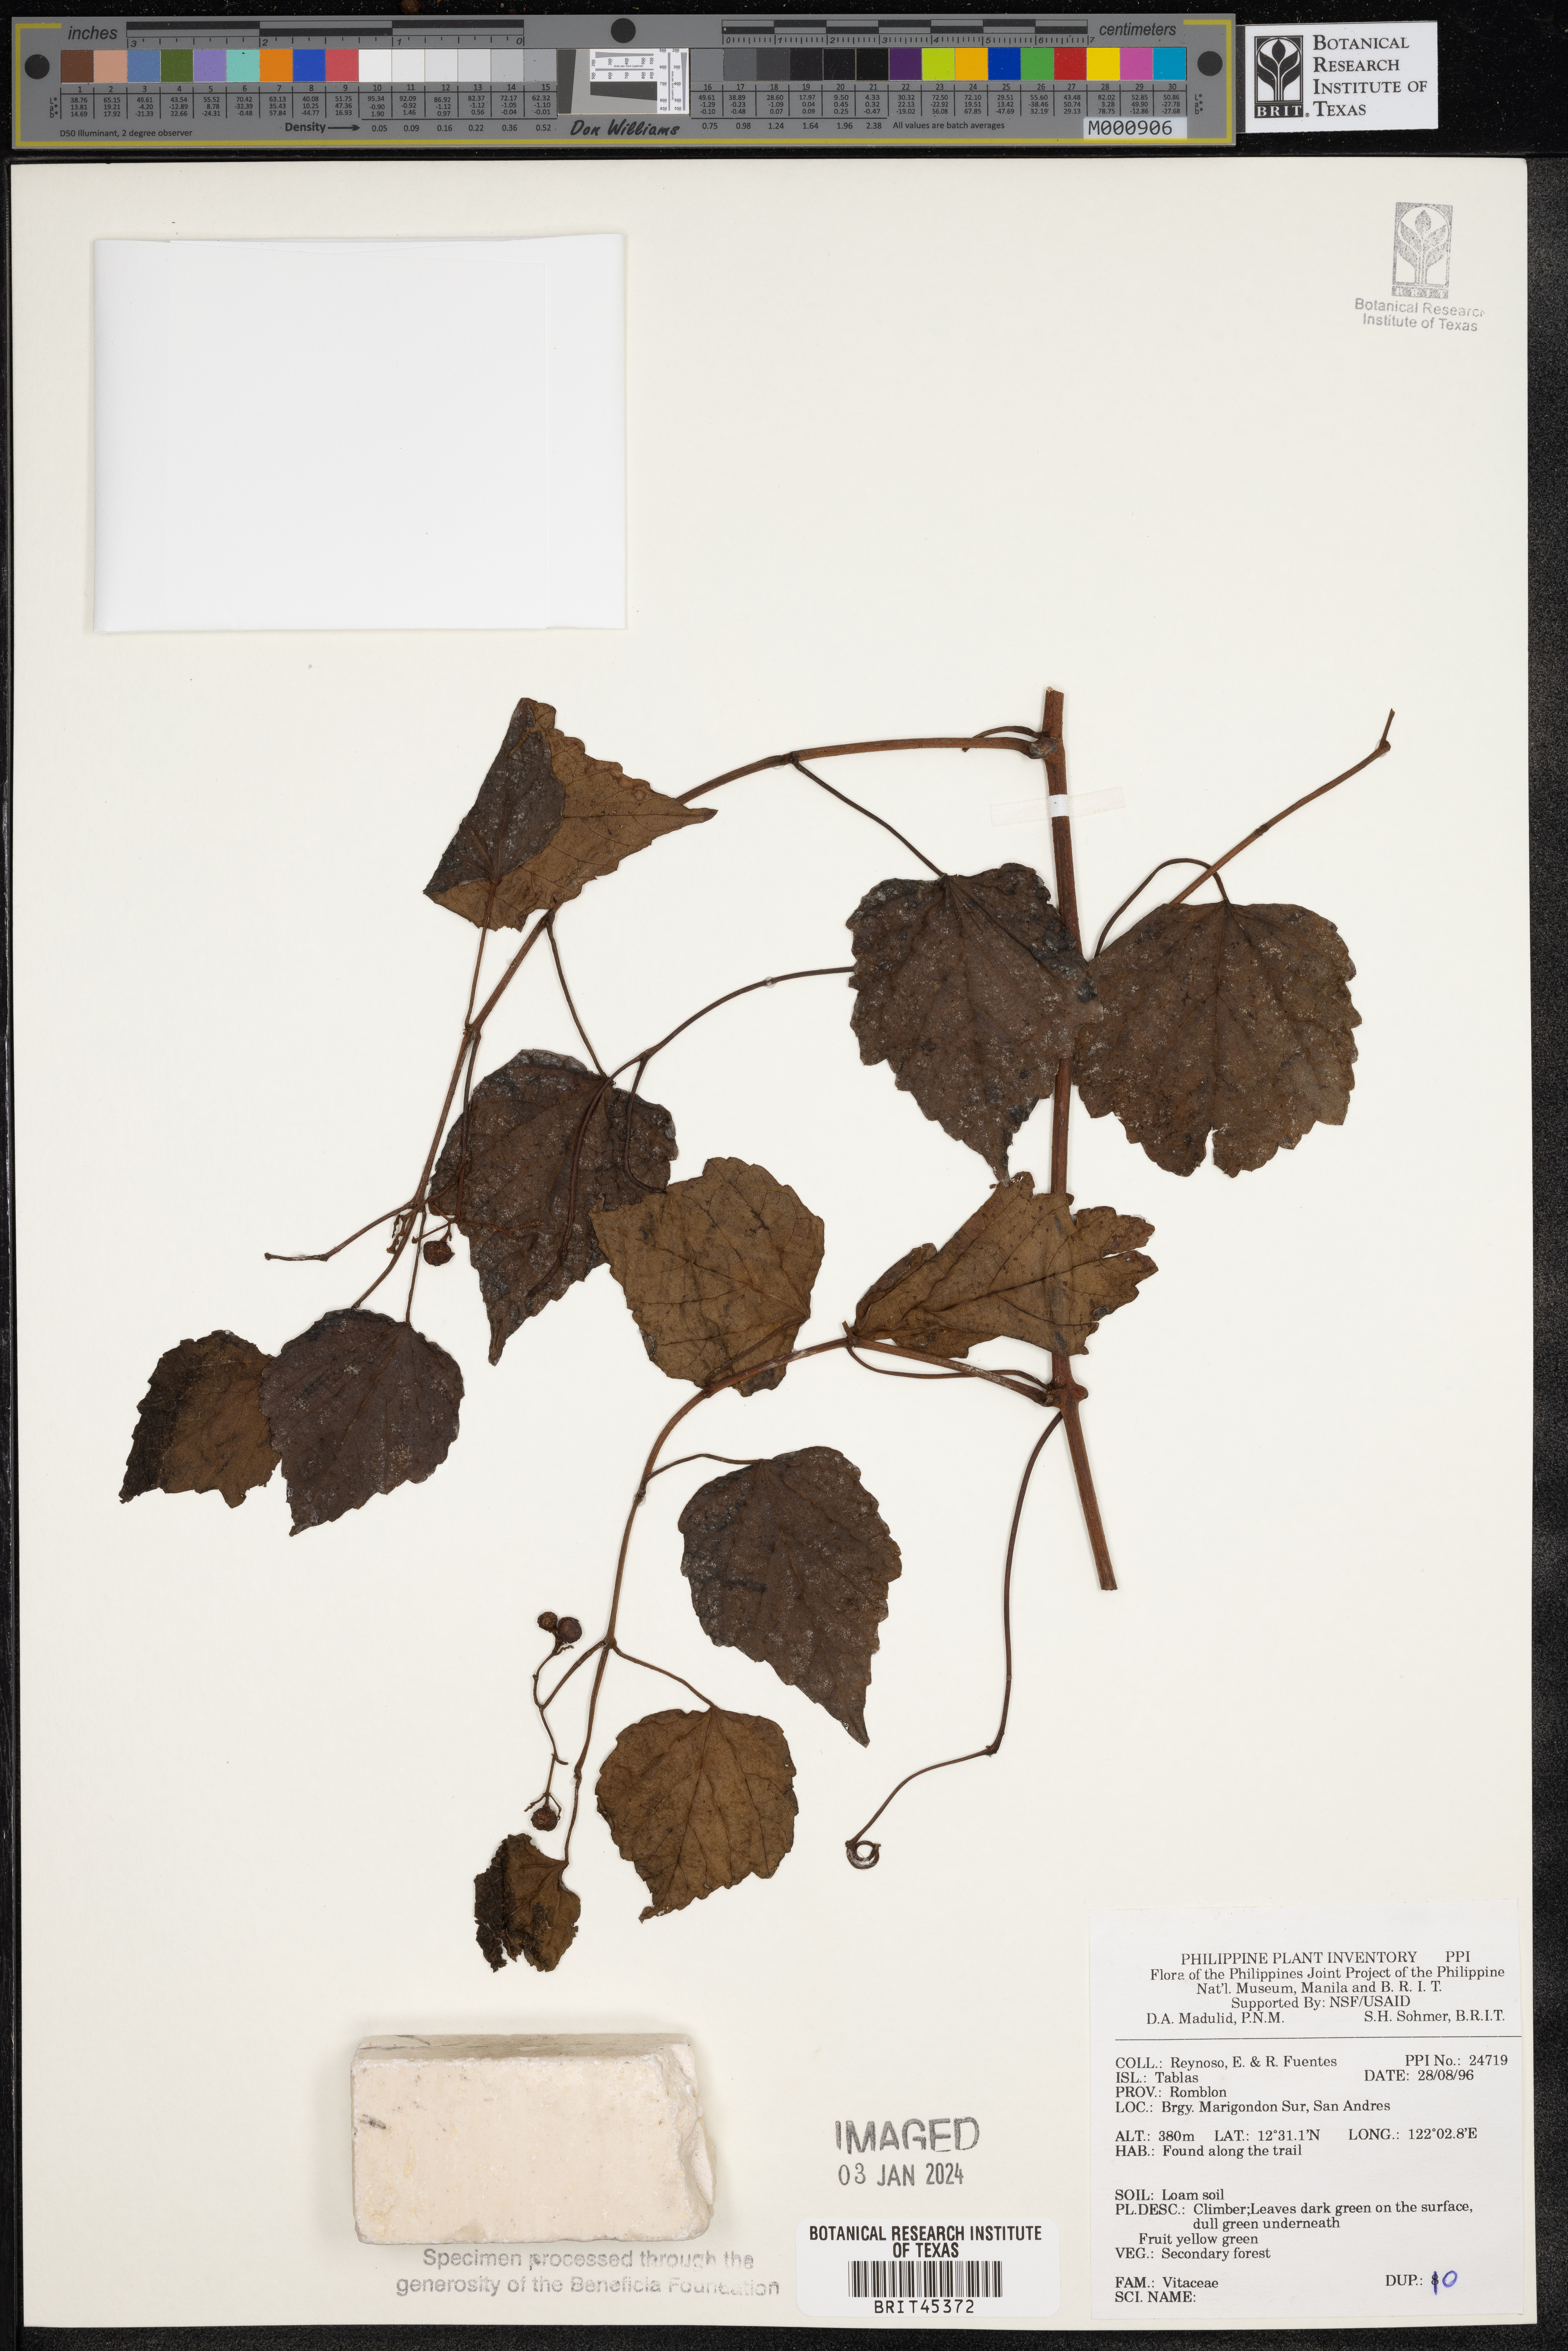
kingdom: Plantae
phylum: Tracheophyta
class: Magnoliopsida
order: Vitales
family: Vitaceae
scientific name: Vitaceae
